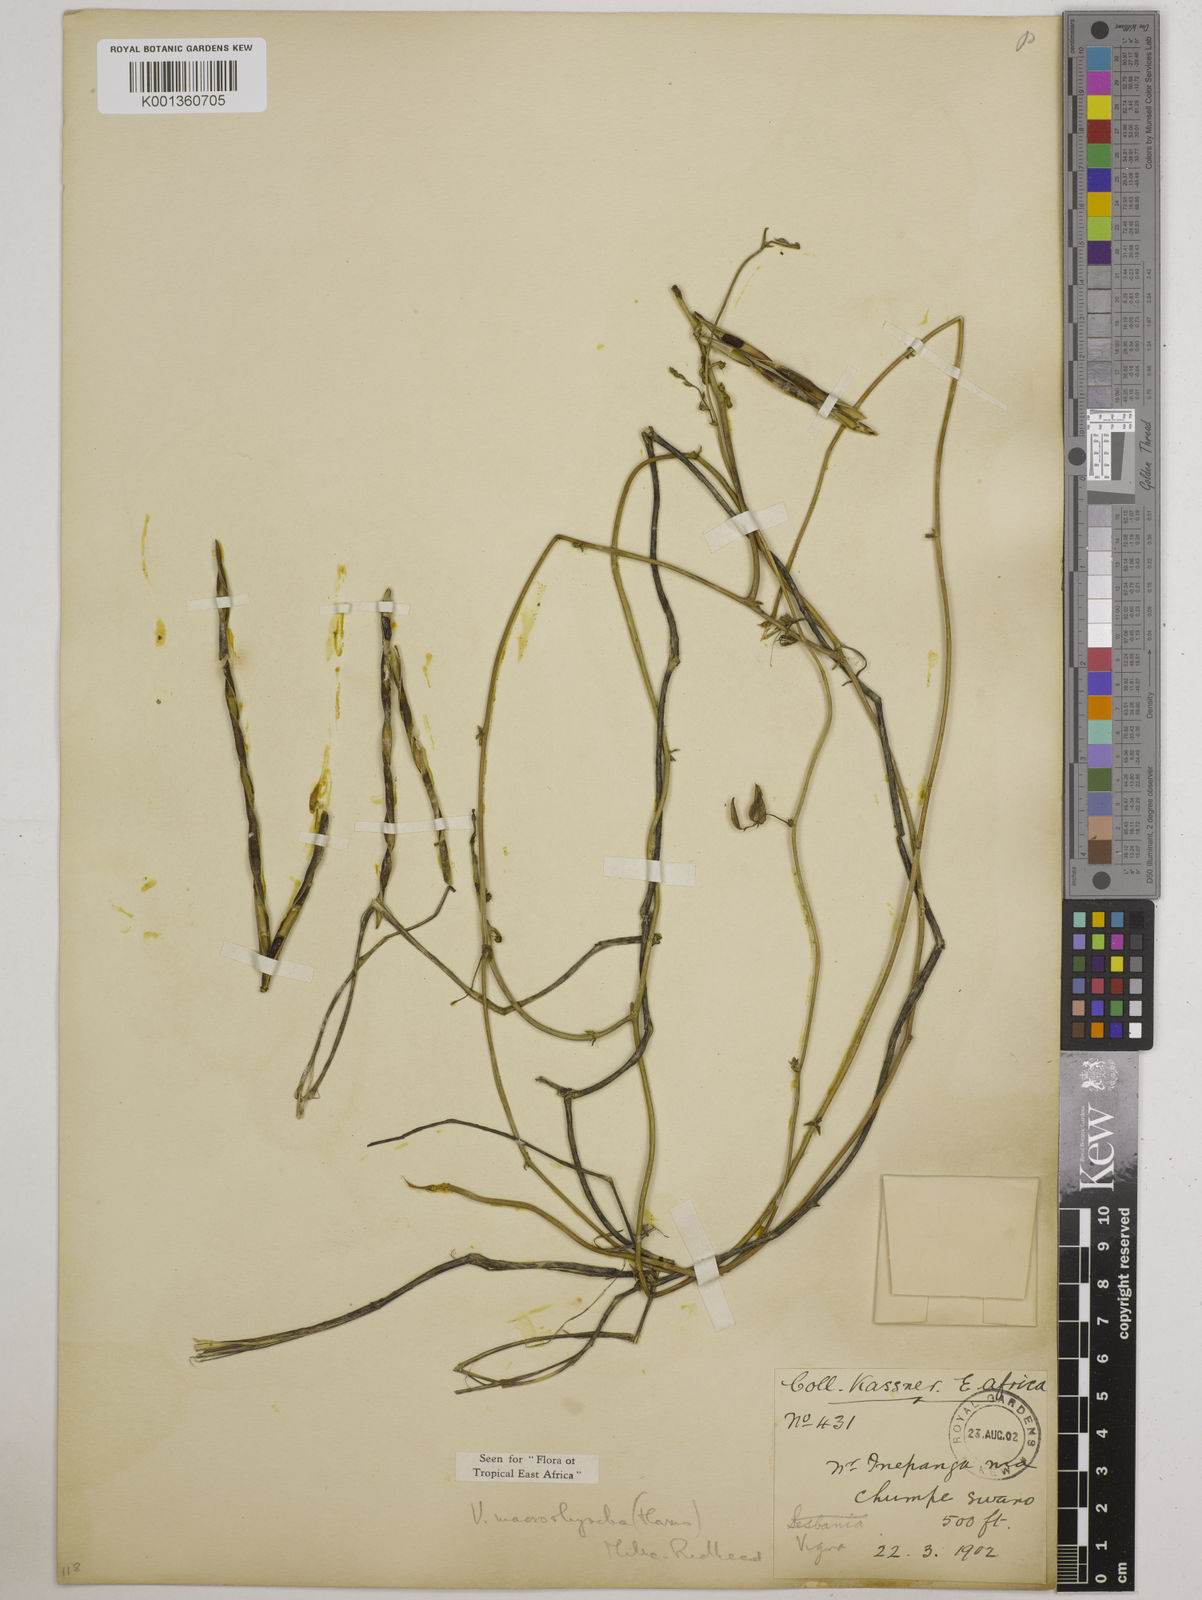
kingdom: Plantae
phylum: Tracheophyta
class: Magnoliopsida
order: Fabales
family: Fabaceae
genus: Wajira
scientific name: Wajira grahamiana
